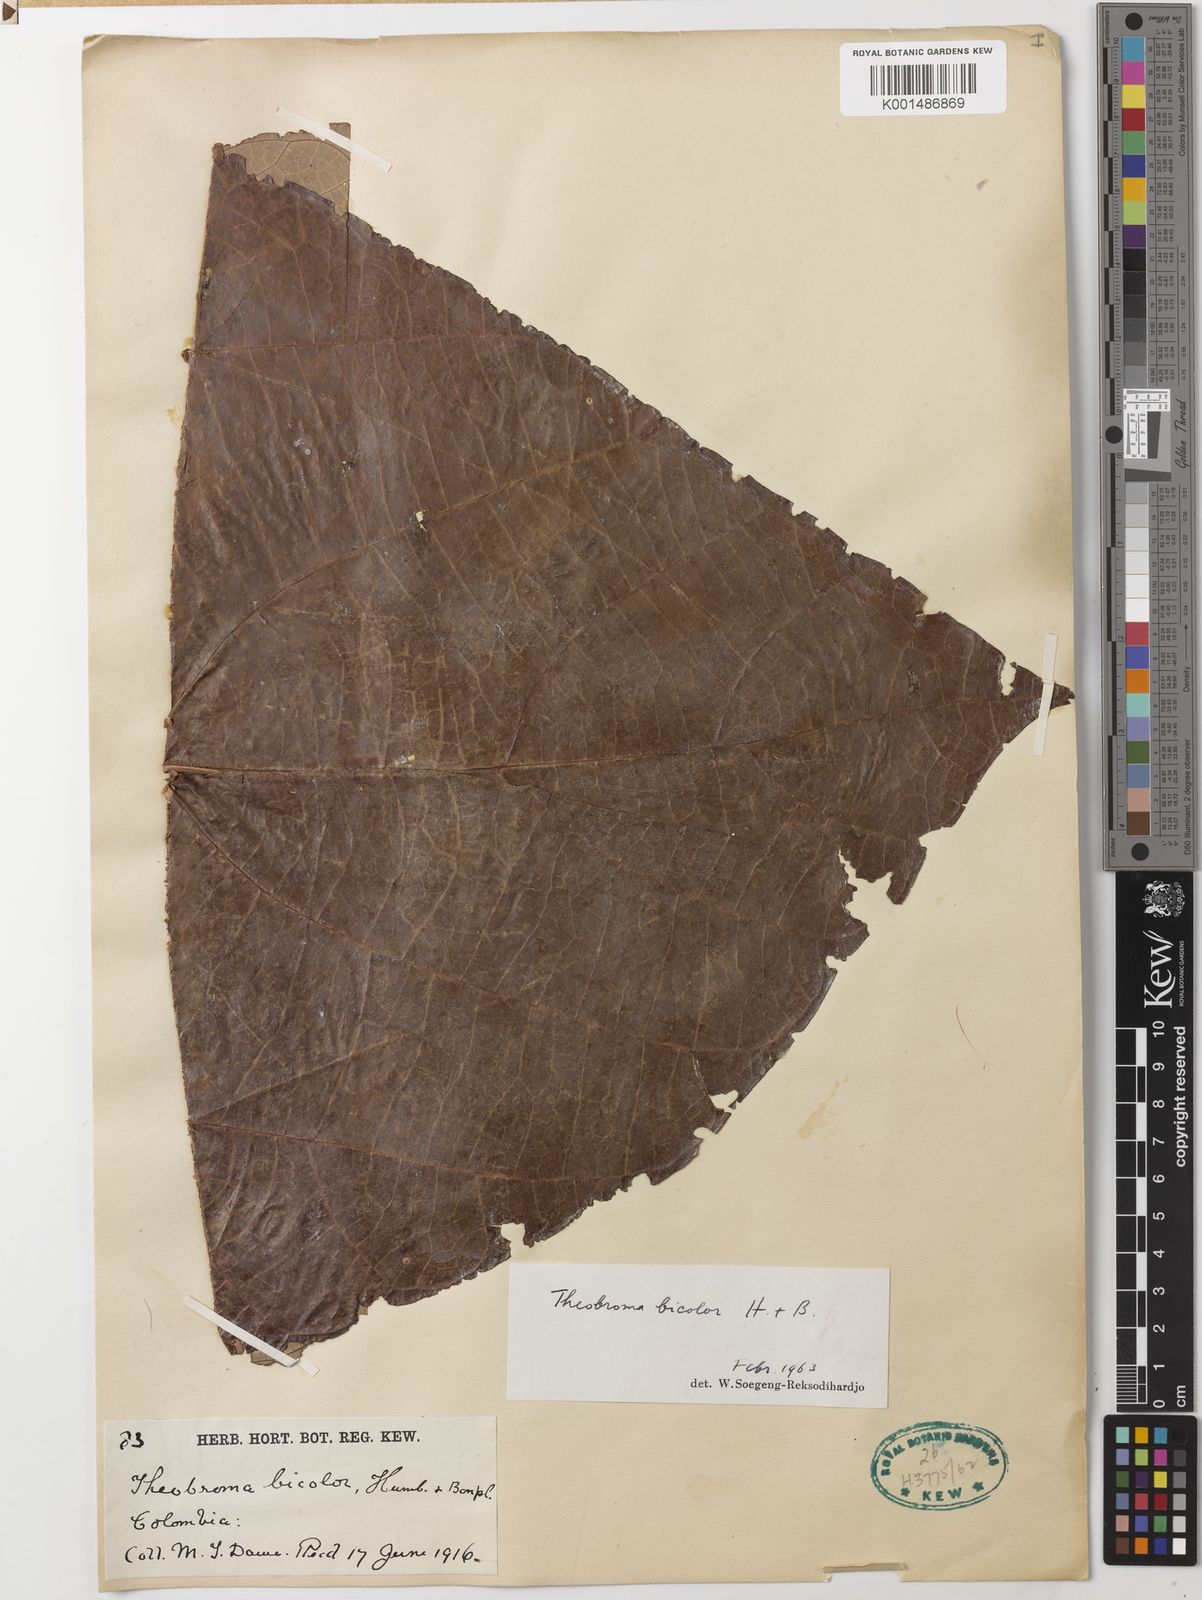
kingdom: Plantae
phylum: Tracheophyta
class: Magnoliopsida
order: Malvales
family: Malvaceae
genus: Theobroma
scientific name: Theobroma bicolor
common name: Macambo tree
